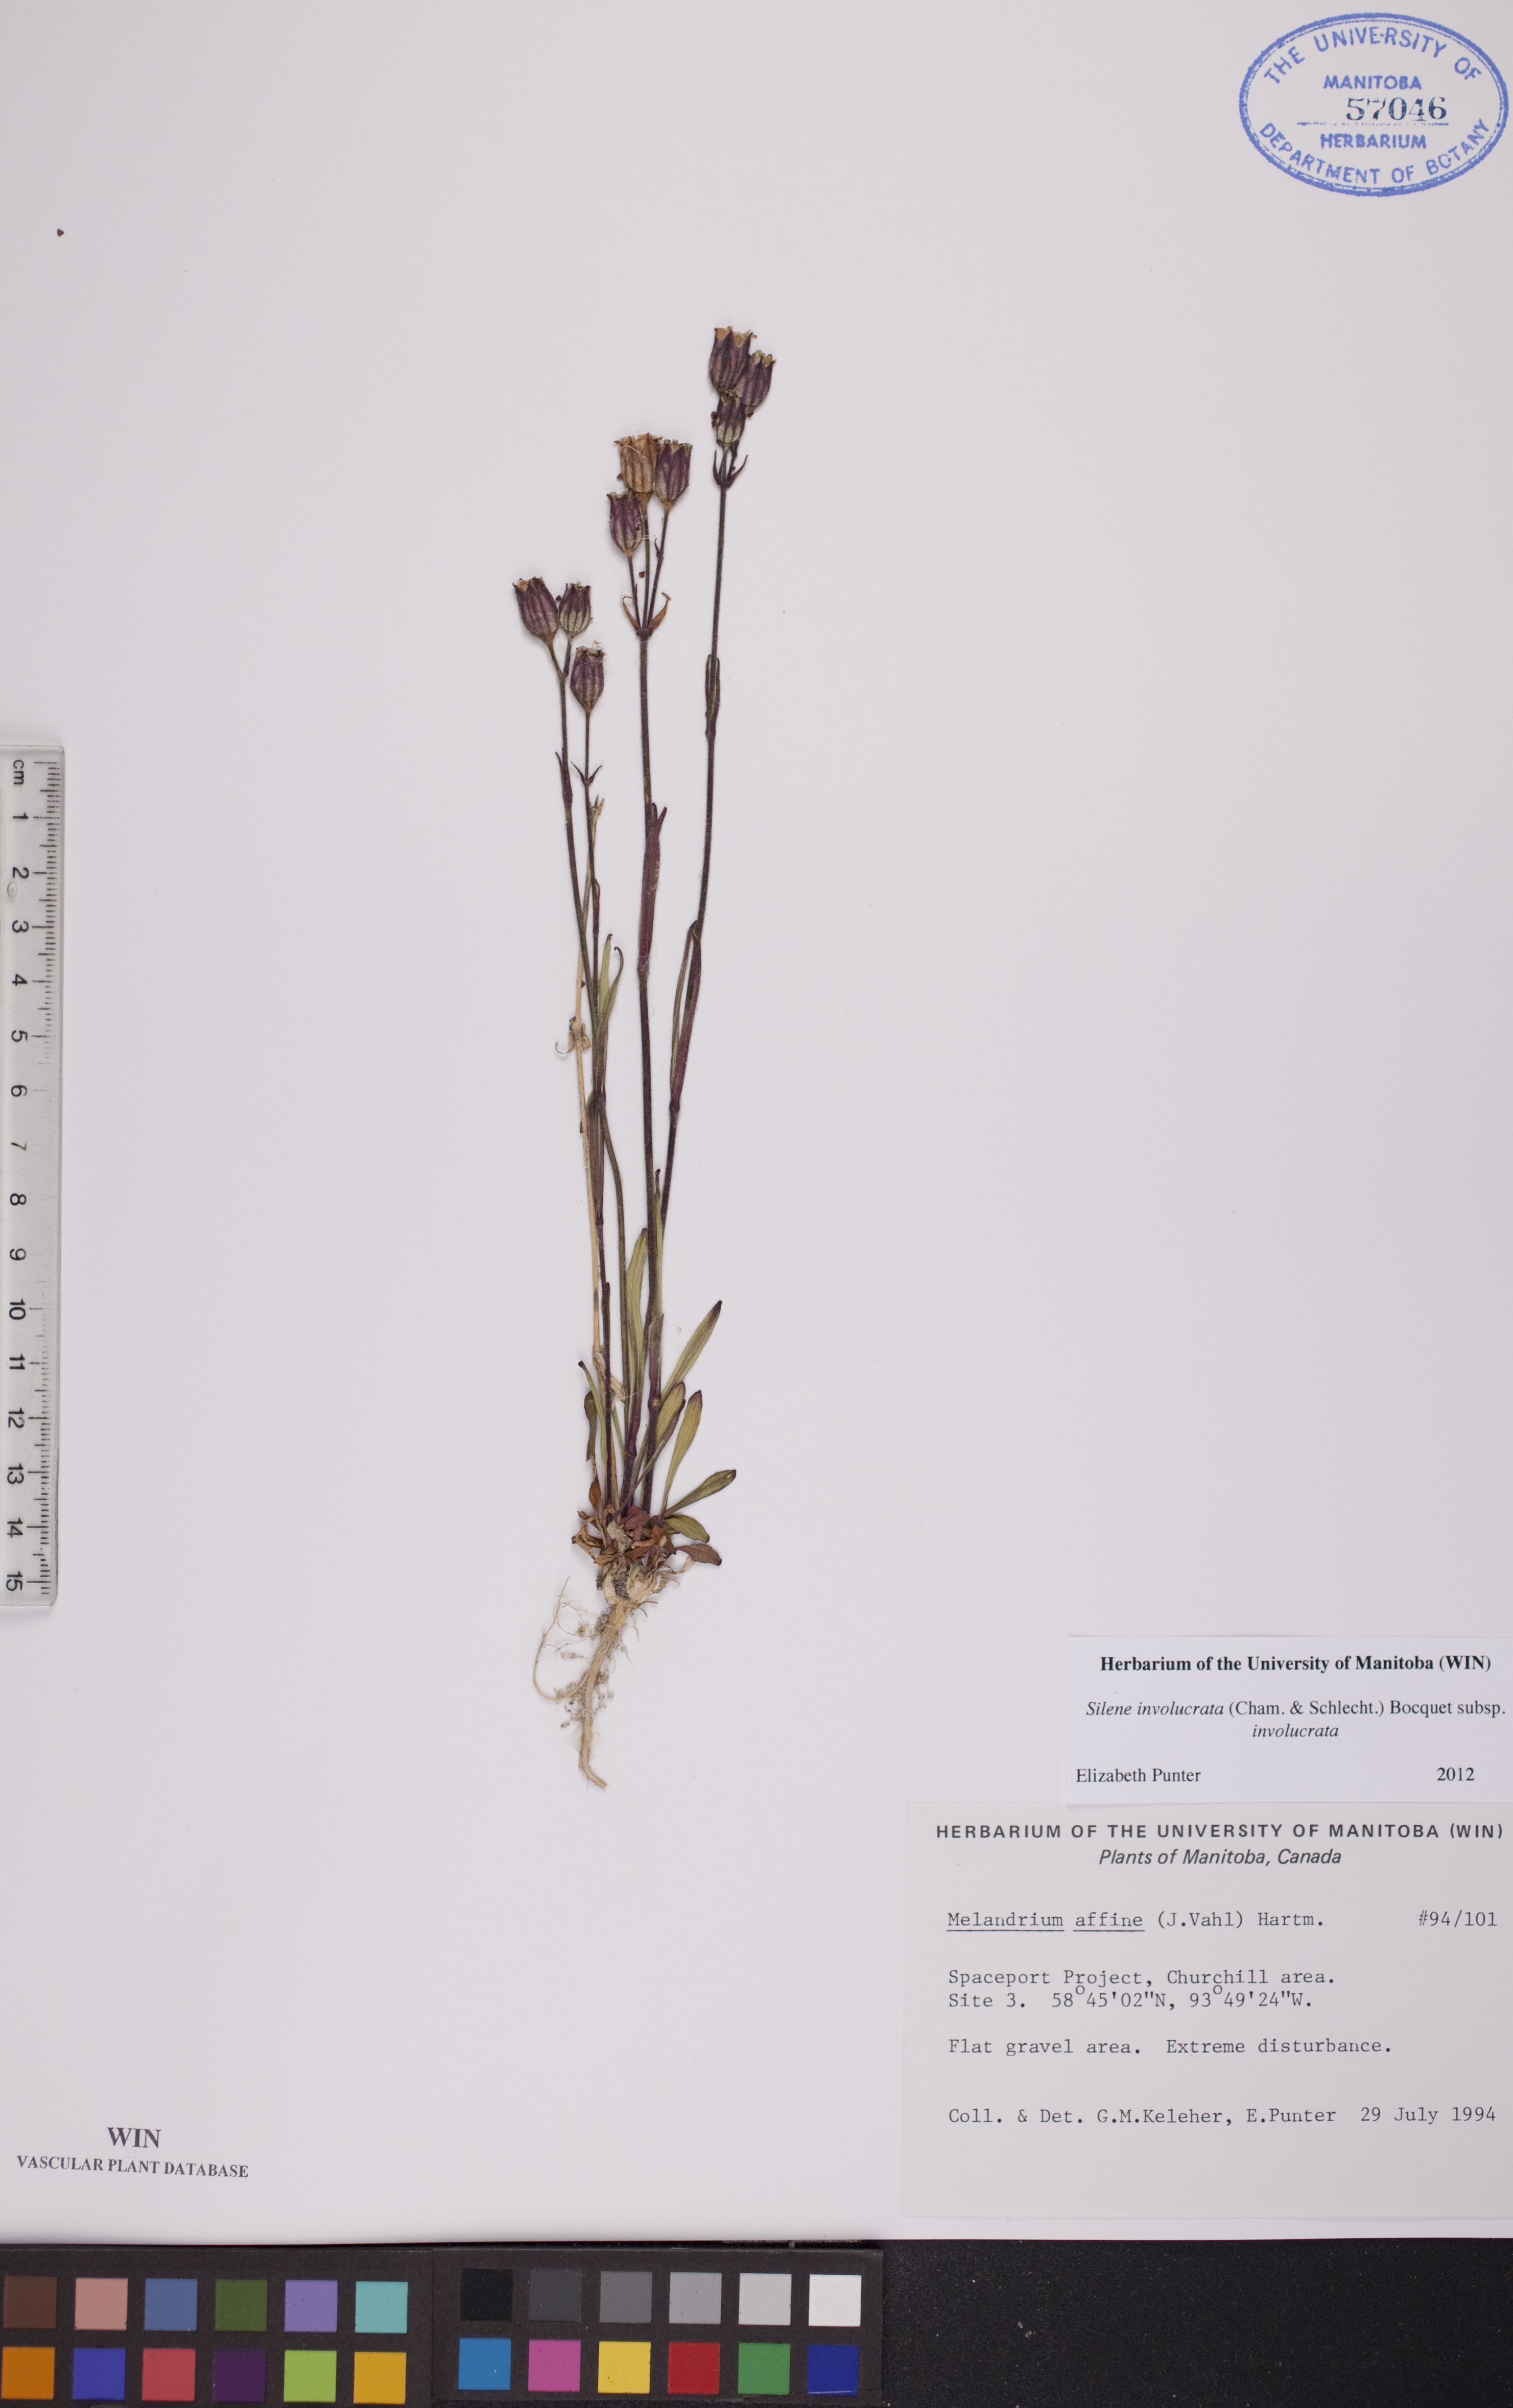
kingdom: Plantae
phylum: Tracheophyta
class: Magnoliopsida
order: Caryophyllales
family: Caryophyllaceae
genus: Silene
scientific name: Silene involucrata
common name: Greater arctic campion
